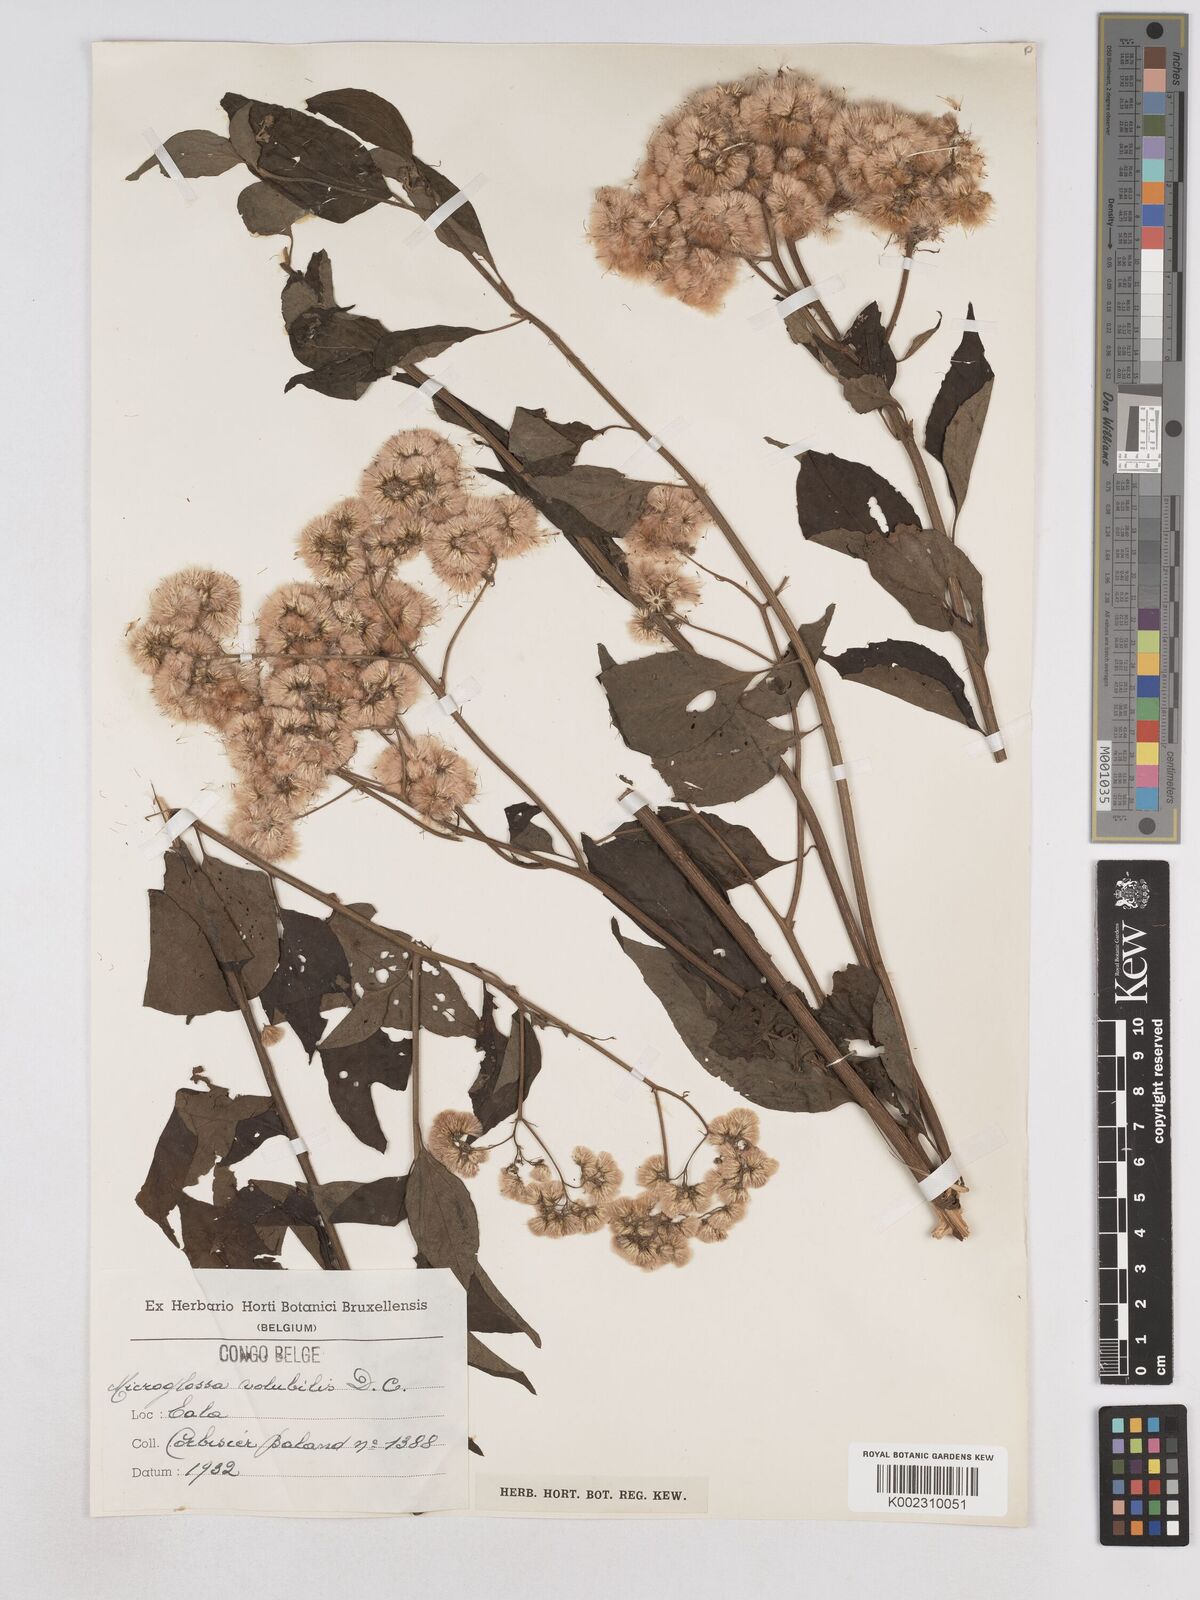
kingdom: Plantae
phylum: Tracheophyta
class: Magnoliopsida
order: Asterales
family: Asteraceae
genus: Microglossa
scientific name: Microglossa pyrifolia
